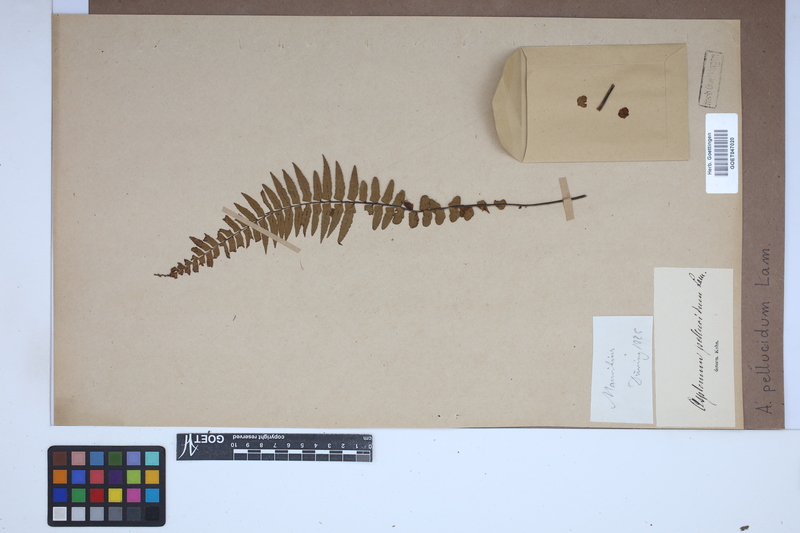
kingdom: Plantae
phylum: Tracheophyta
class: Polypodiopsida
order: Polypodiales
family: Aspleniaceae
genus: Asplenium
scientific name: Asplenium pellucidum
